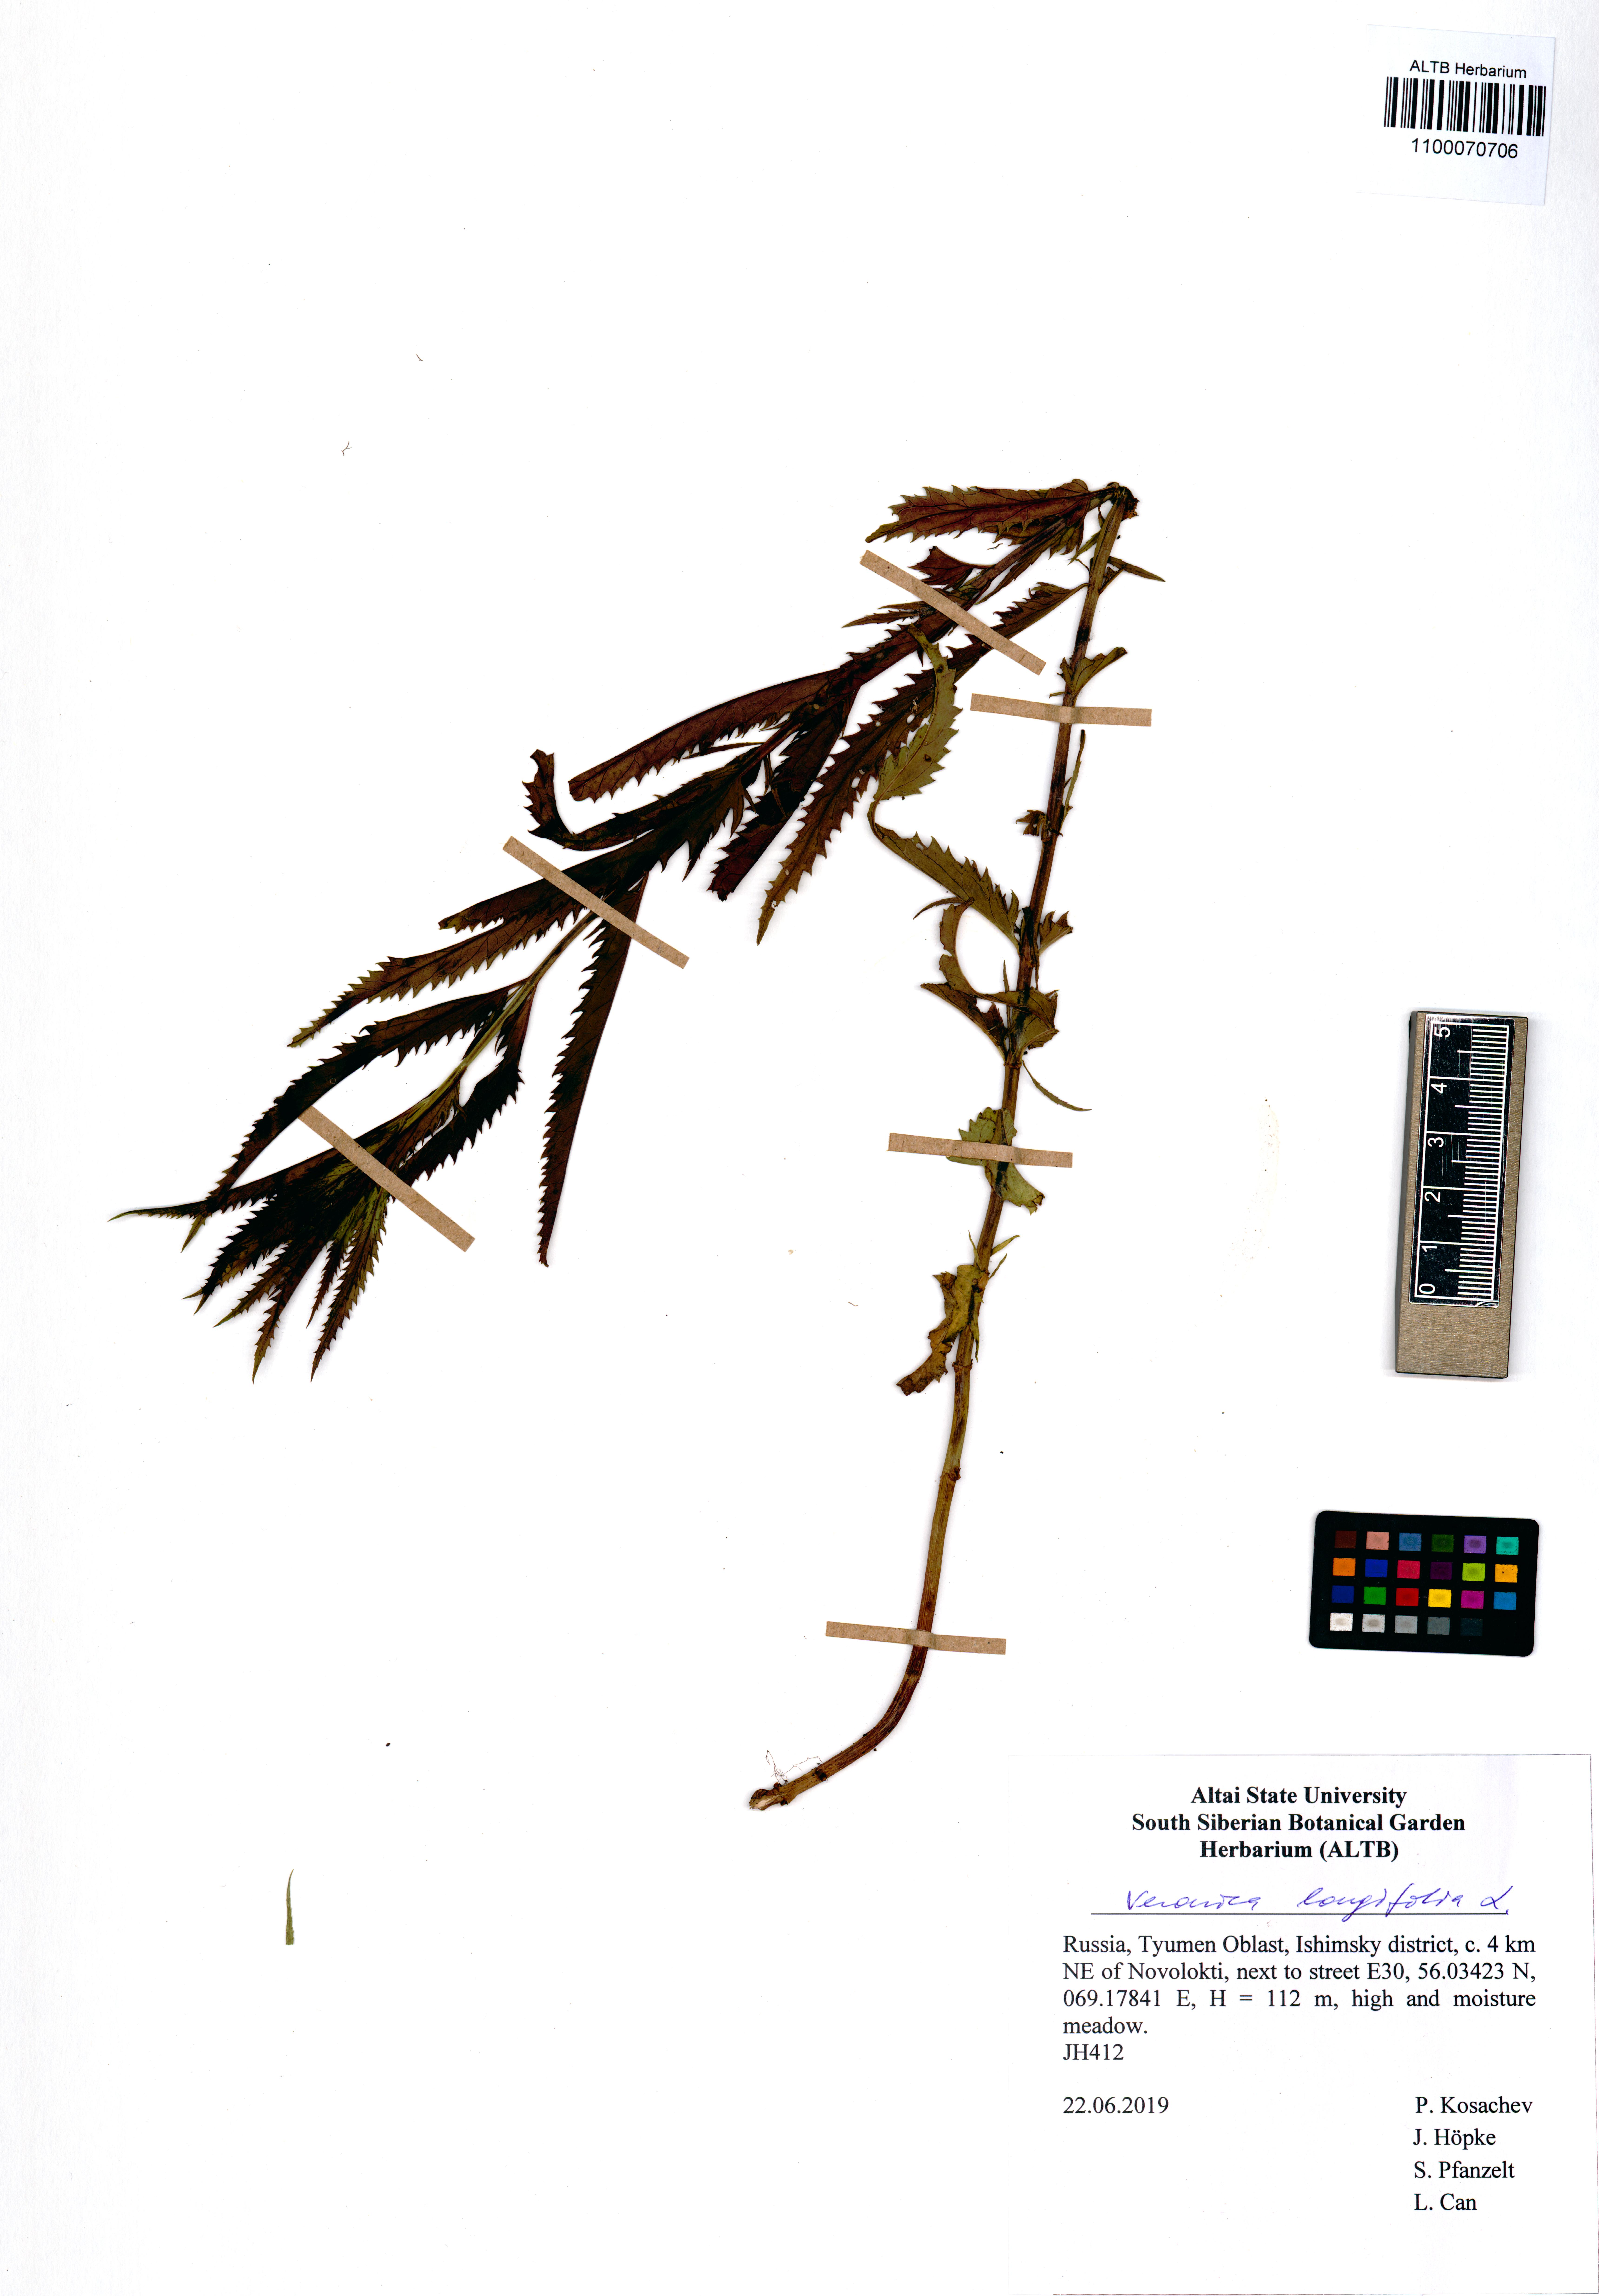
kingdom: Plantae
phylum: Tracheophyta
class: Magnoliopsida
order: Lamiales
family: Plantaginaceae
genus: Veronica
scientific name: Veronica longifolia
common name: Garden speedwell
